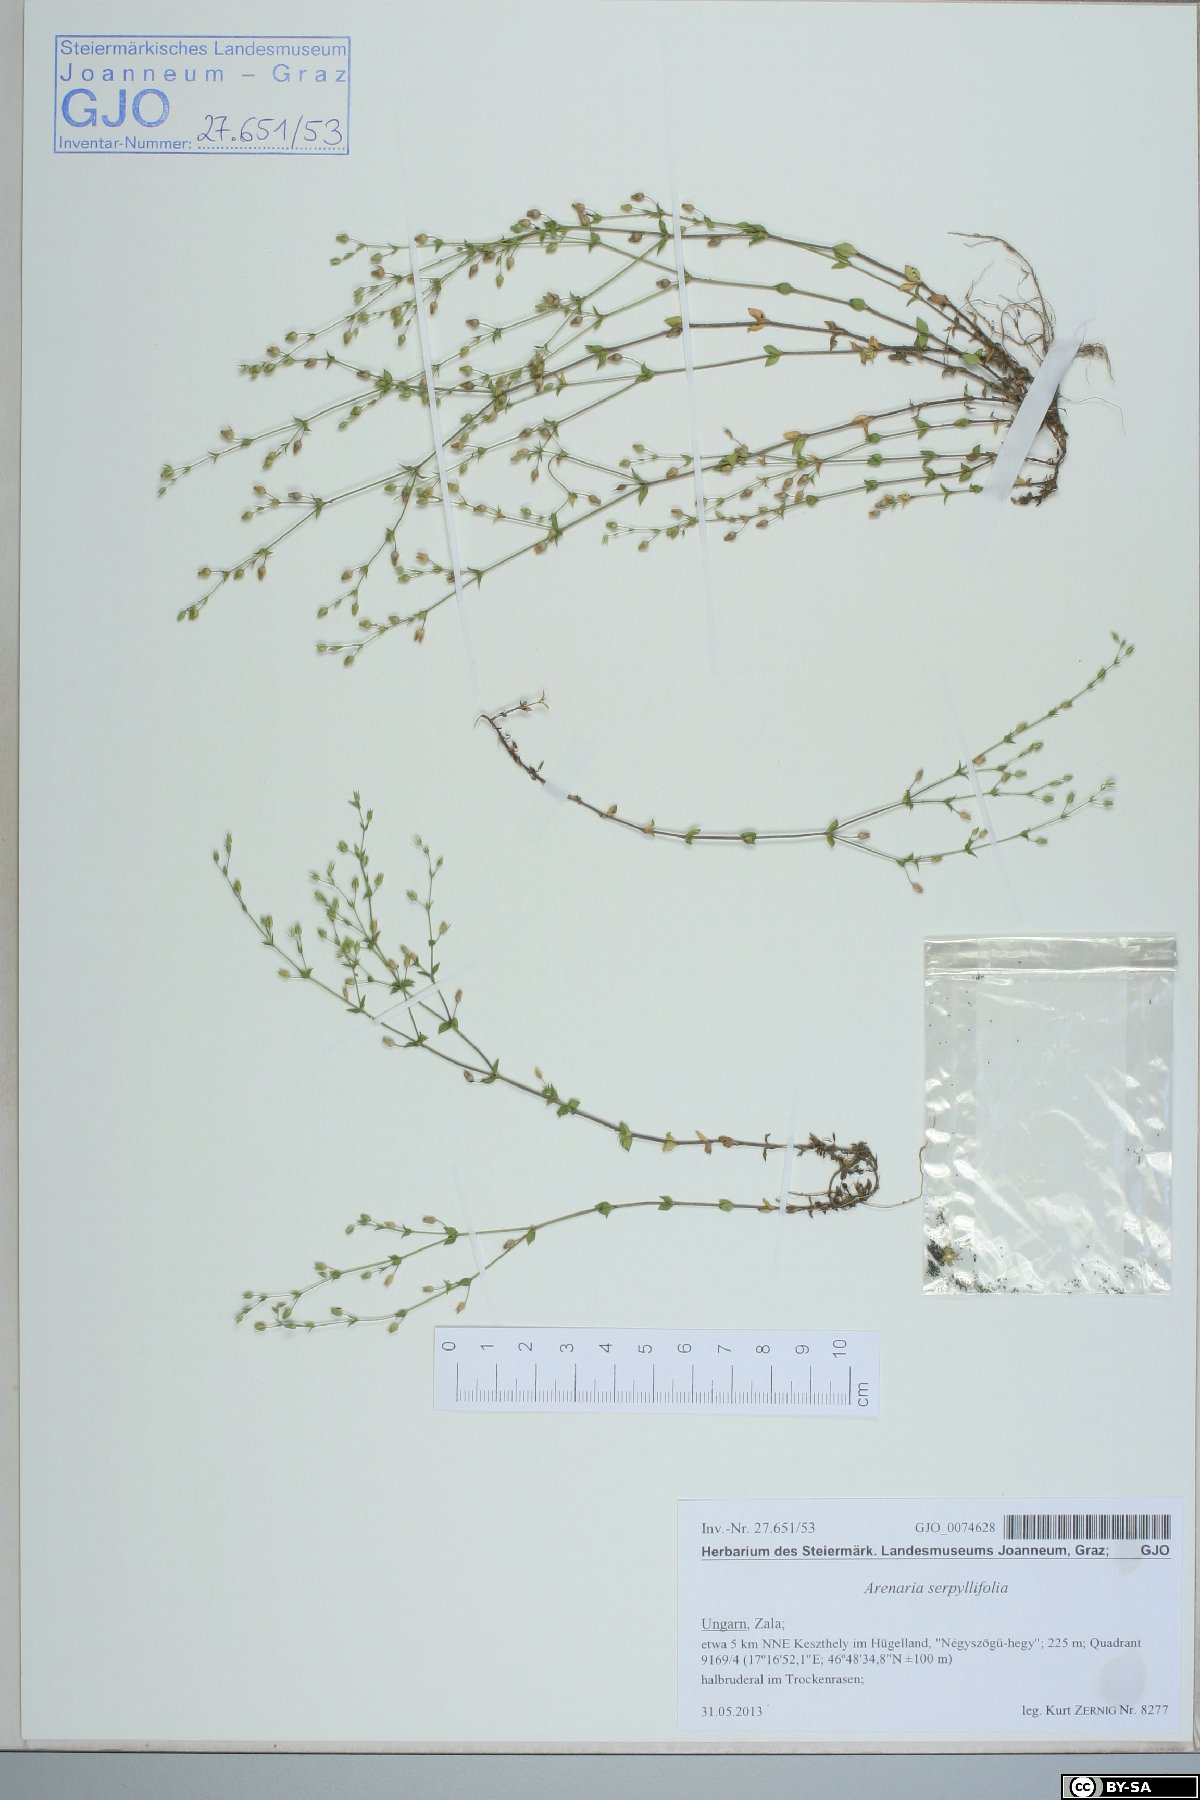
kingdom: Plantae
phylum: Tracheophyta
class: Magnoliopsida
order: Caryophyllales
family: Caryophyllaceae
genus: Arenaria
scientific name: Arenaria serpyllifolia
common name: Thyme-leaved sandwort
